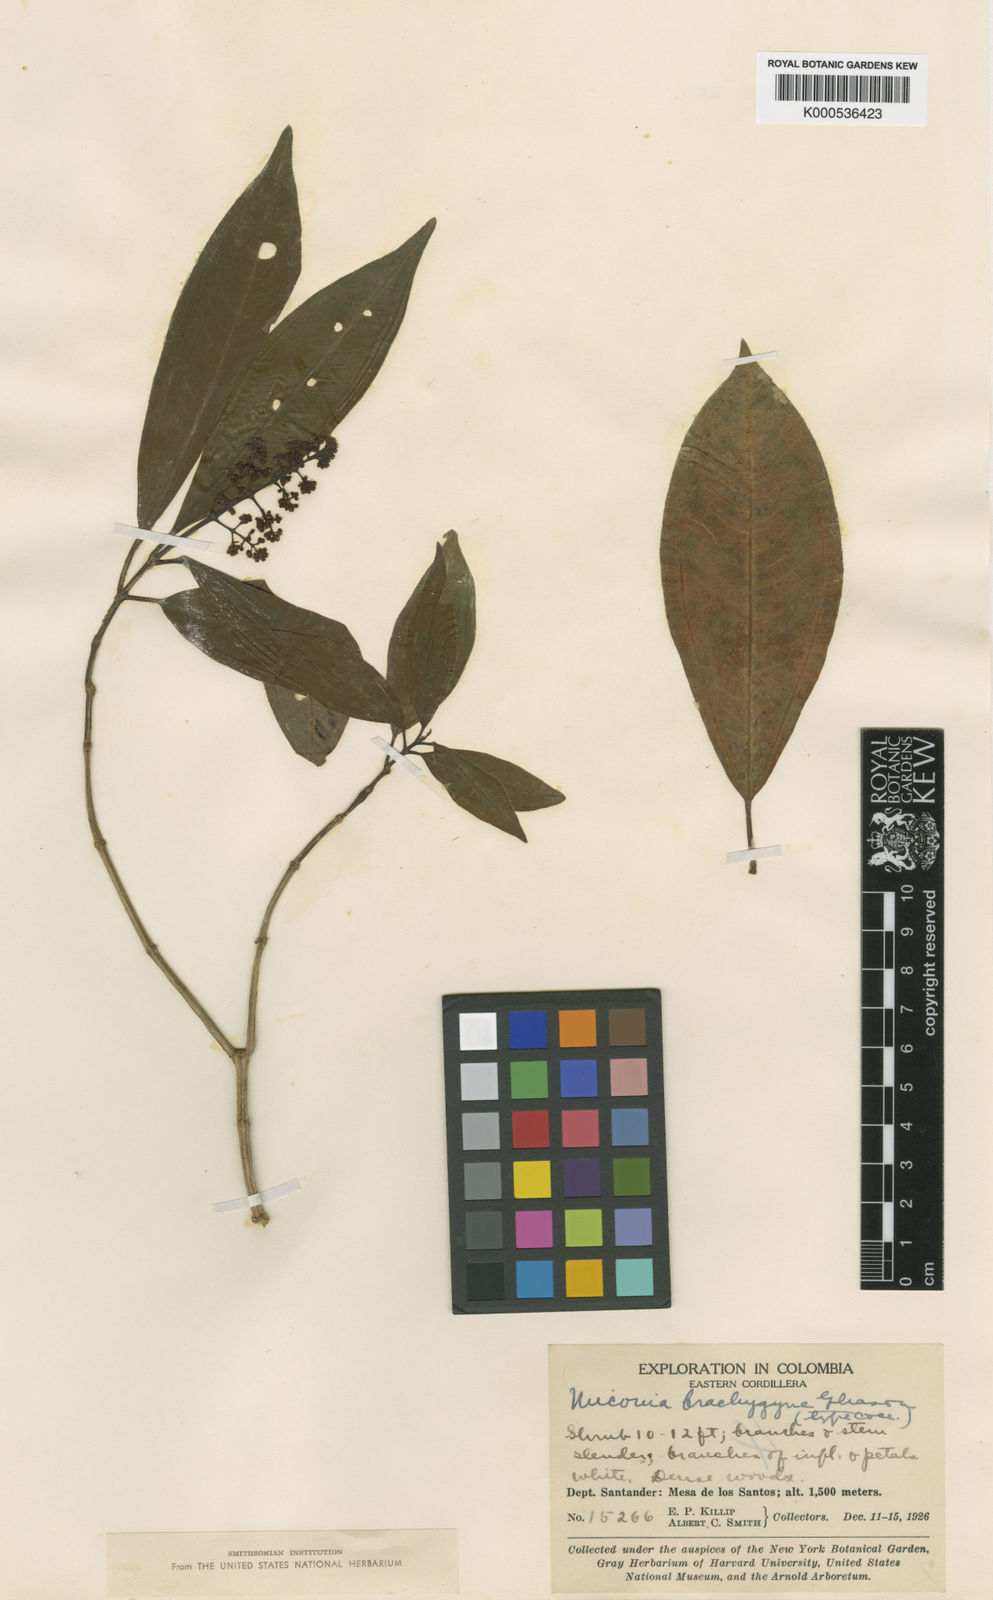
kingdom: Plantae
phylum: Tracheophyta
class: Magnoliopsida
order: Myrtales
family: Melastomataceae
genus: Miconia
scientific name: Miconia brachygyna
